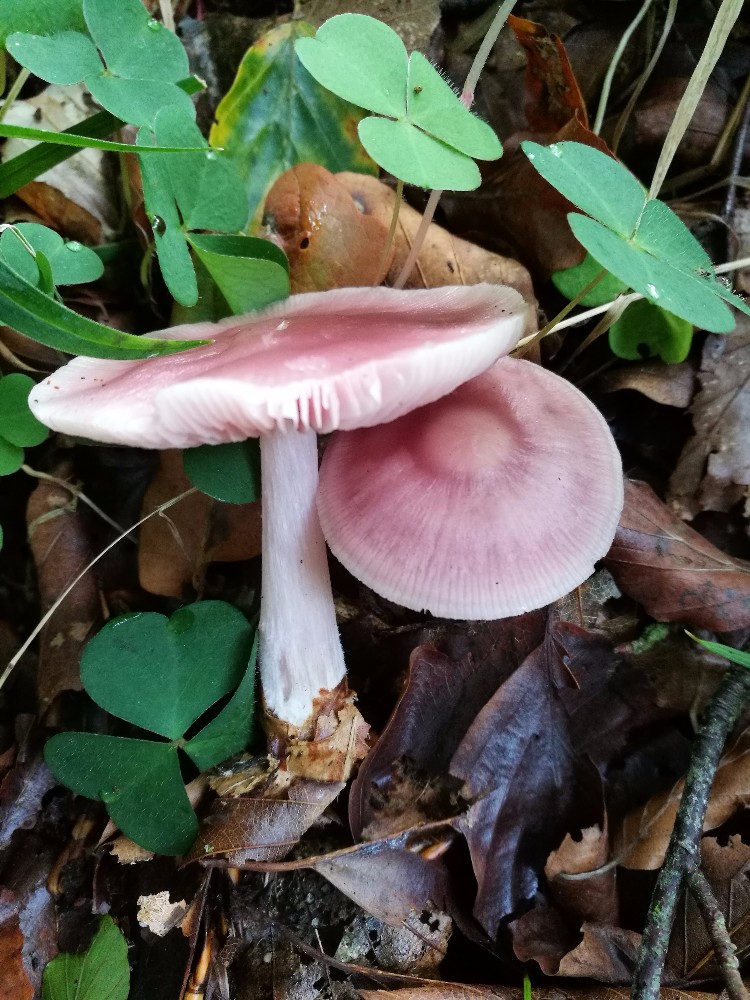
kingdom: Fungi
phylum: Basidiomycota
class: Agaricomycetes
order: Agaricales
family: Mycenaceae
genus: Mycena
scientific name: Mycena rosea
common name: rosa huesvamp
